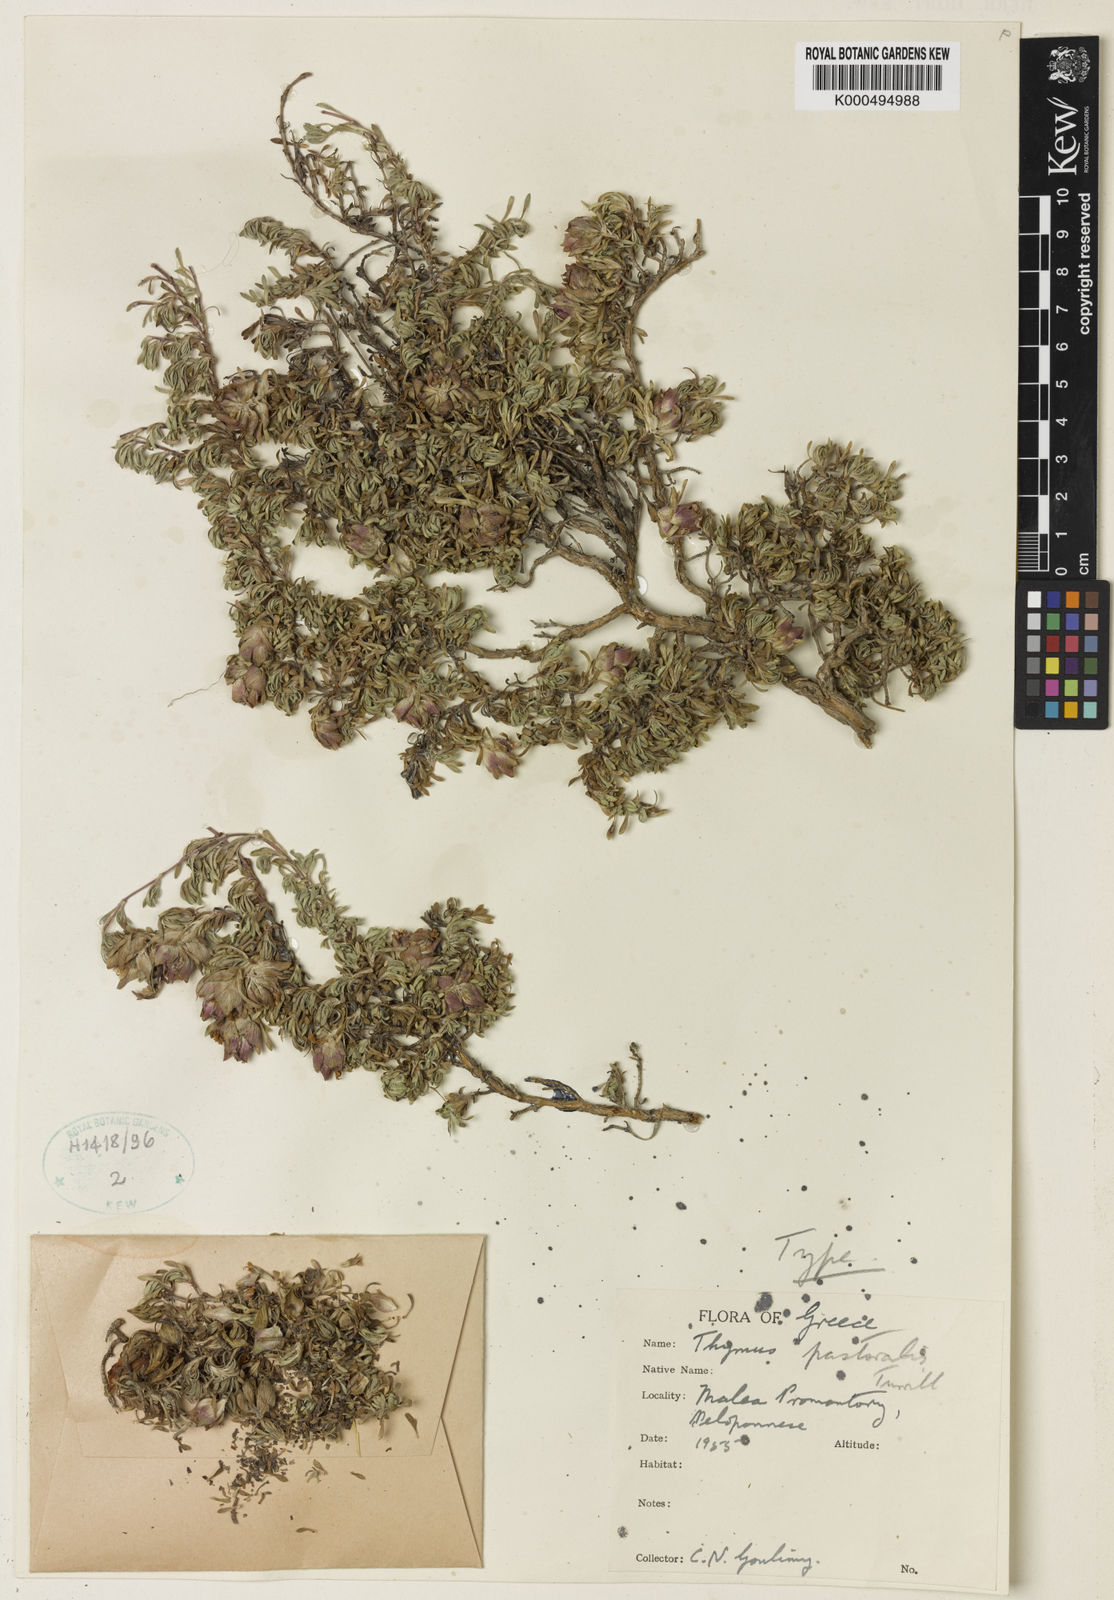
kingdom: Plantae
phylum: Tracheophyta
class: Magnoliopsida
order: Lamiales
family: Lamiaceae
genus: Thymus
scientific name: Thymus laconicus
